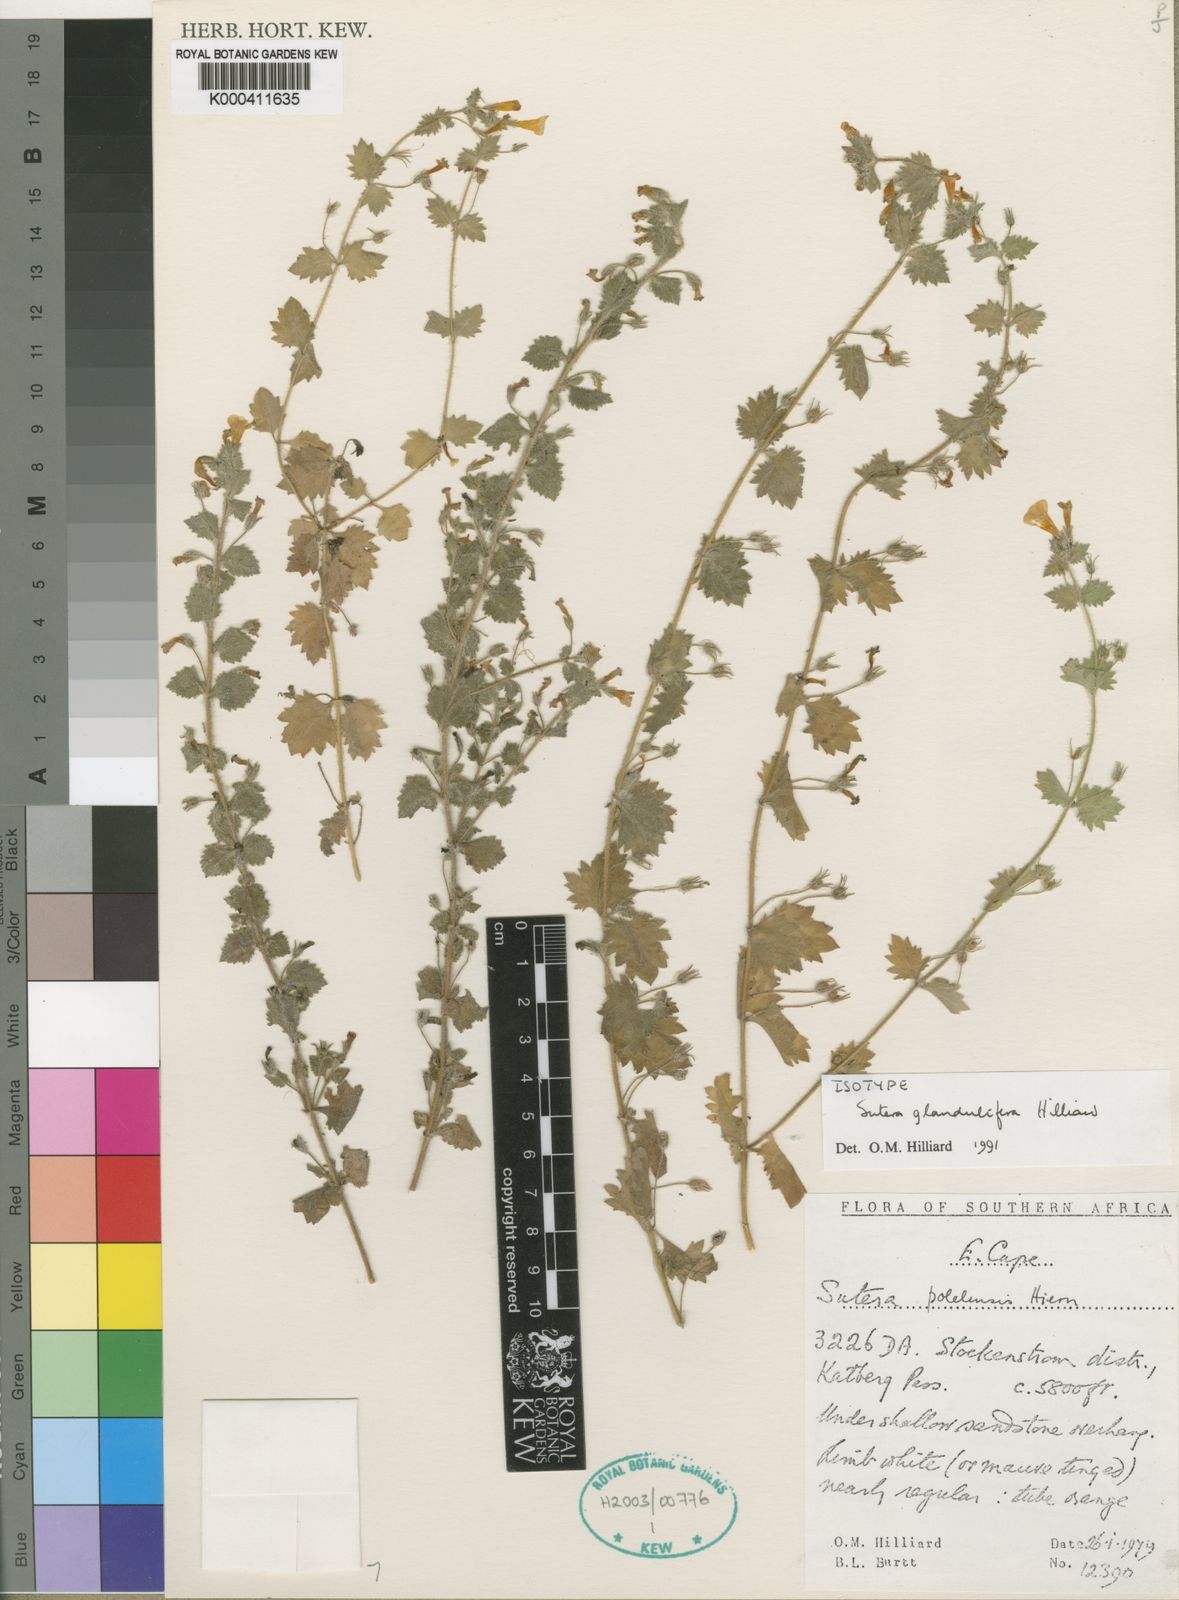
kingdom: Plantae
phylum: Tracheophyta
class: Magnoliopsida
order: Lamiales
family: Scrophulariaceae
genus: Chaenostoma
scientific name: Chaenostoma glanduliferum
